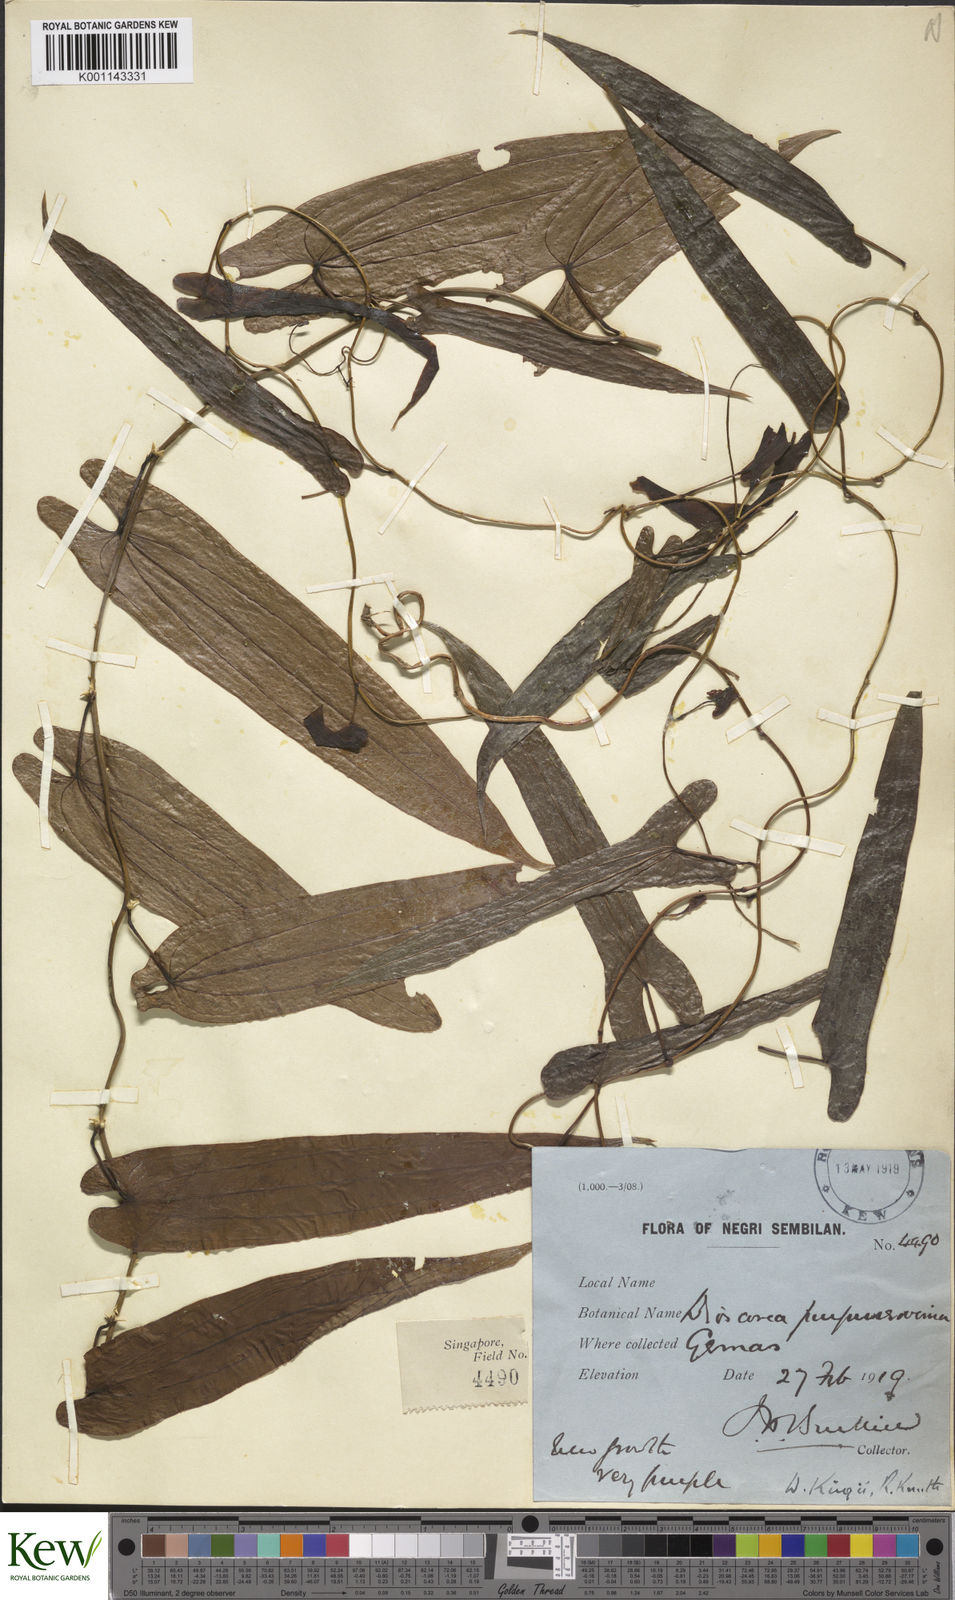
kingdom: Plantae
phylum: Tracheophyta
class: Liliopsida
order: Dioscoreales
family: Dioscoreaceae
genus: Dioscorea
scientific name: Dioscorea kingii
